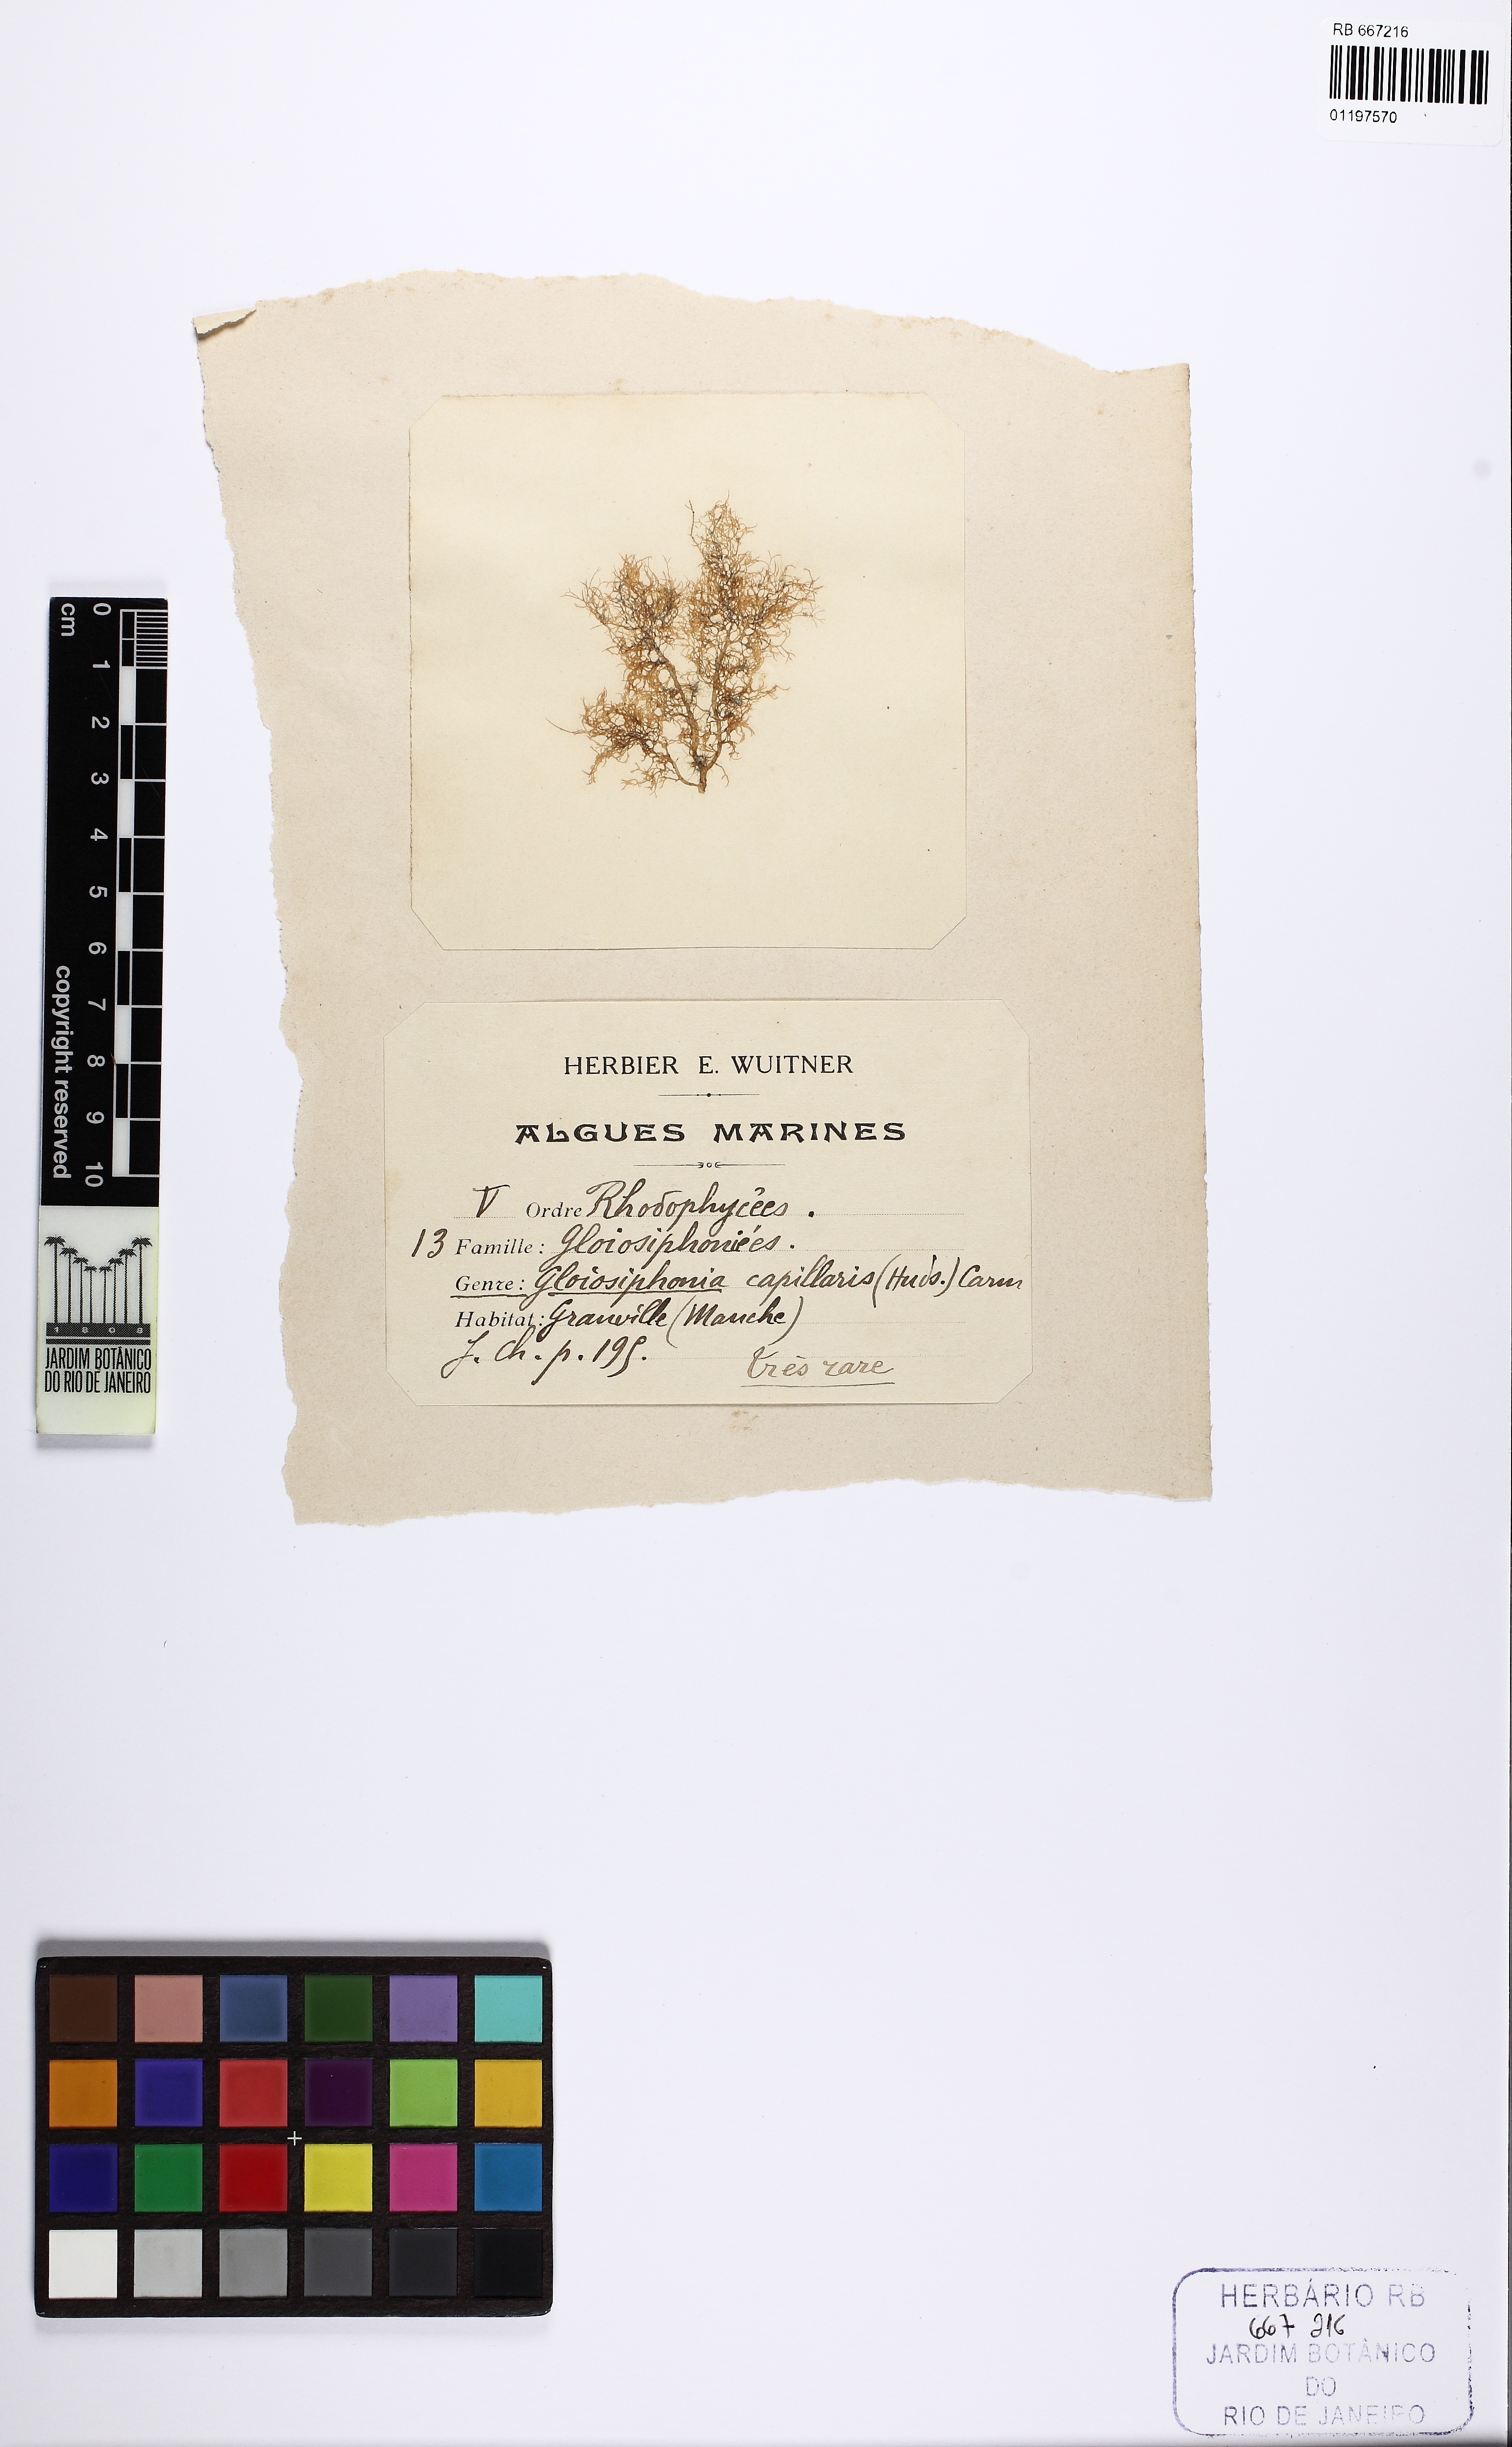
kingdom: Plantae
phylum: Rhodophyta
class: Florideophyceae
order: Gigartinales
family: Gloiosiphoniaceae
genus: Gloiosiphonia
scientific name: Gloiosiphonia capillaris
